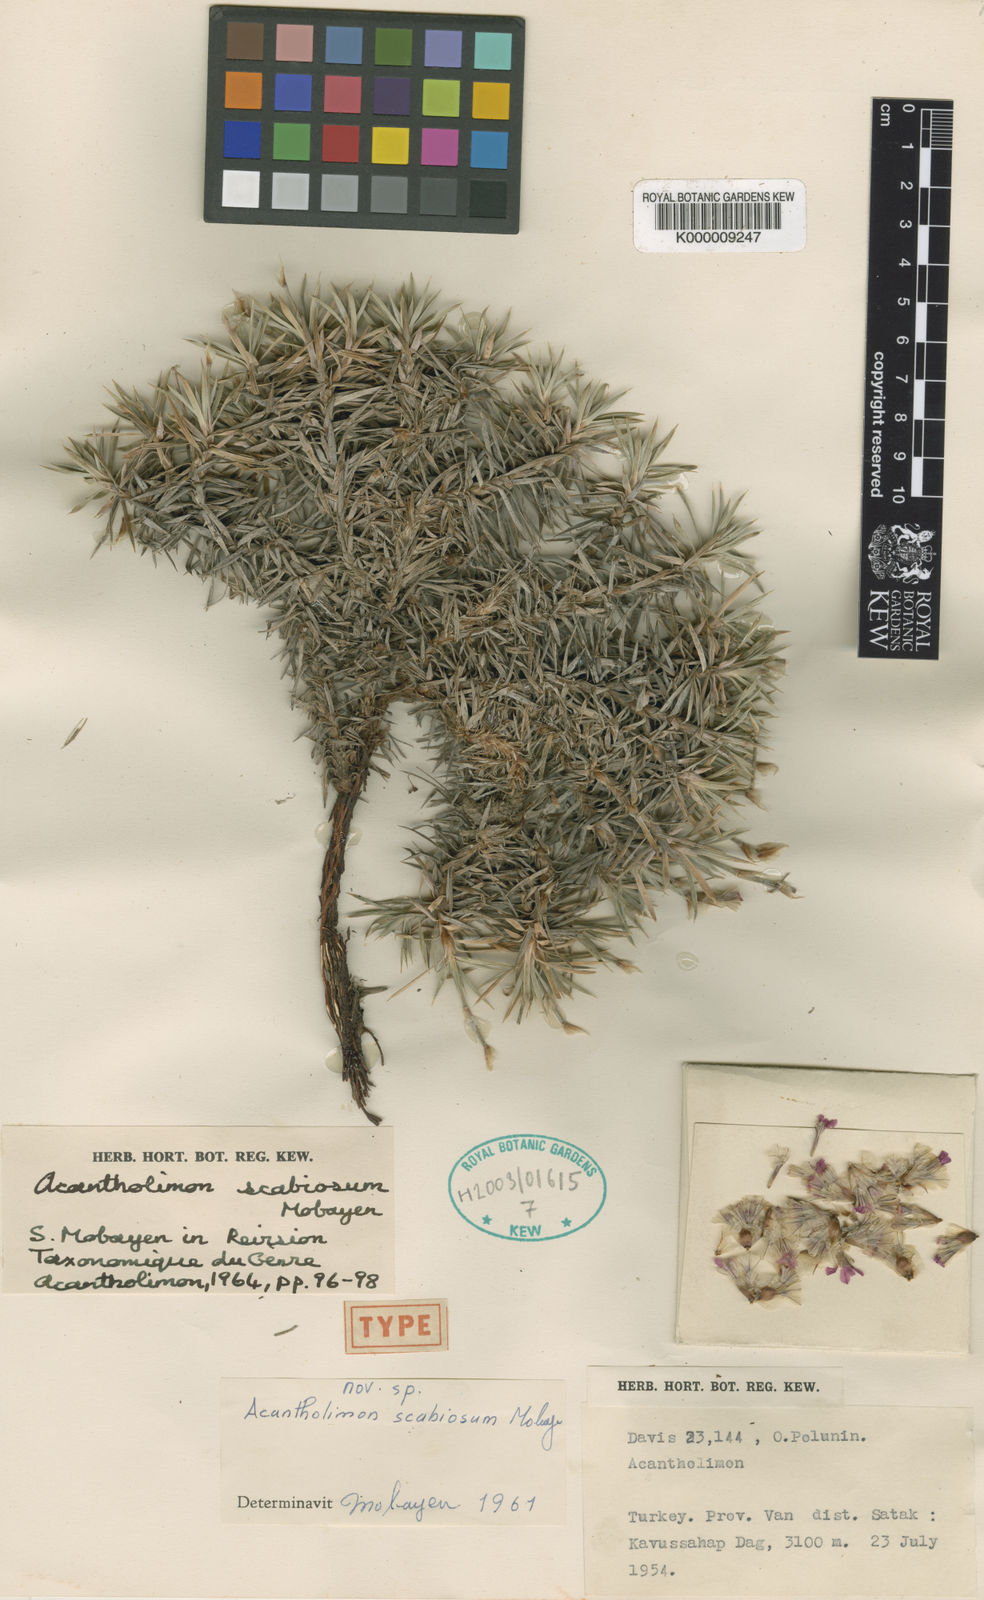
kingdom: Plantae
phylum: Tracheophyta
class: Magnoliopsida
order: Caryophyllales
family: Plumbaginaceae
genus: Acantholimon
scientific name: Acantholimon capitatum
